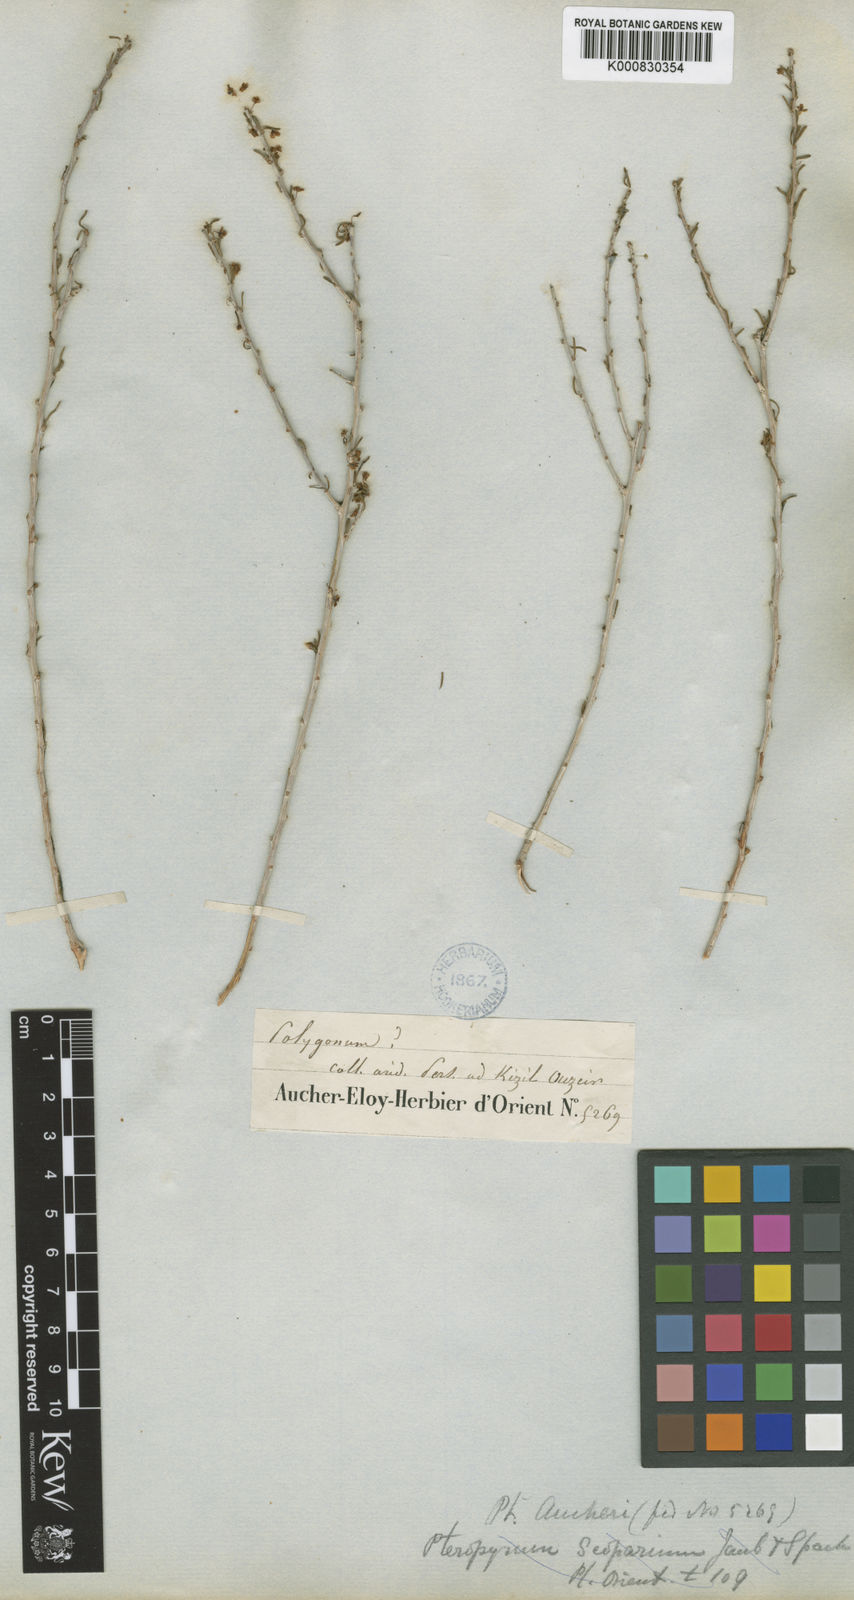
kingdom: Plantae
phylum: Tracheophyta
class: Magnoliopsida
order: Caryophyllales
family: Polygonaceae
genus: Pteropyrum
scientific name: Pteropyrum aucheri
